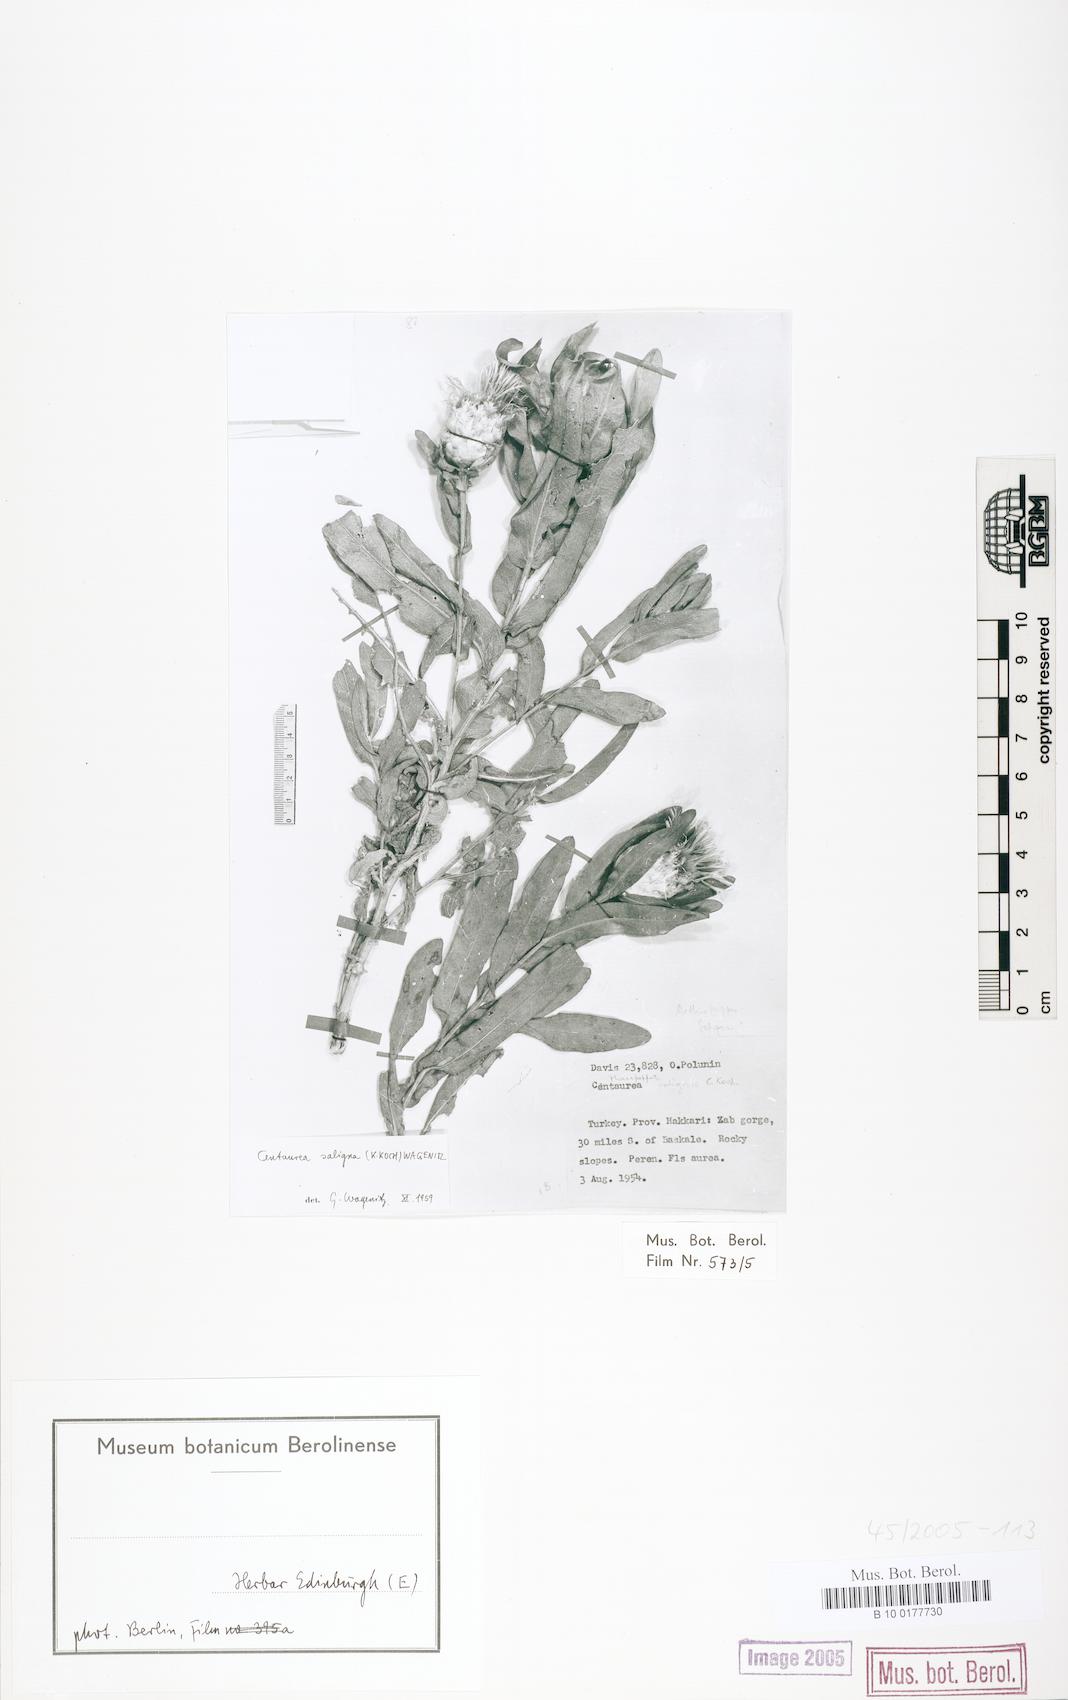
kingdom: Plantae
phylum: Tracheophyta
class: Magnoliopsida
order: Asterales
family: Asteraceae
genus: Centaurea
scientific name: Centaurea saligna
